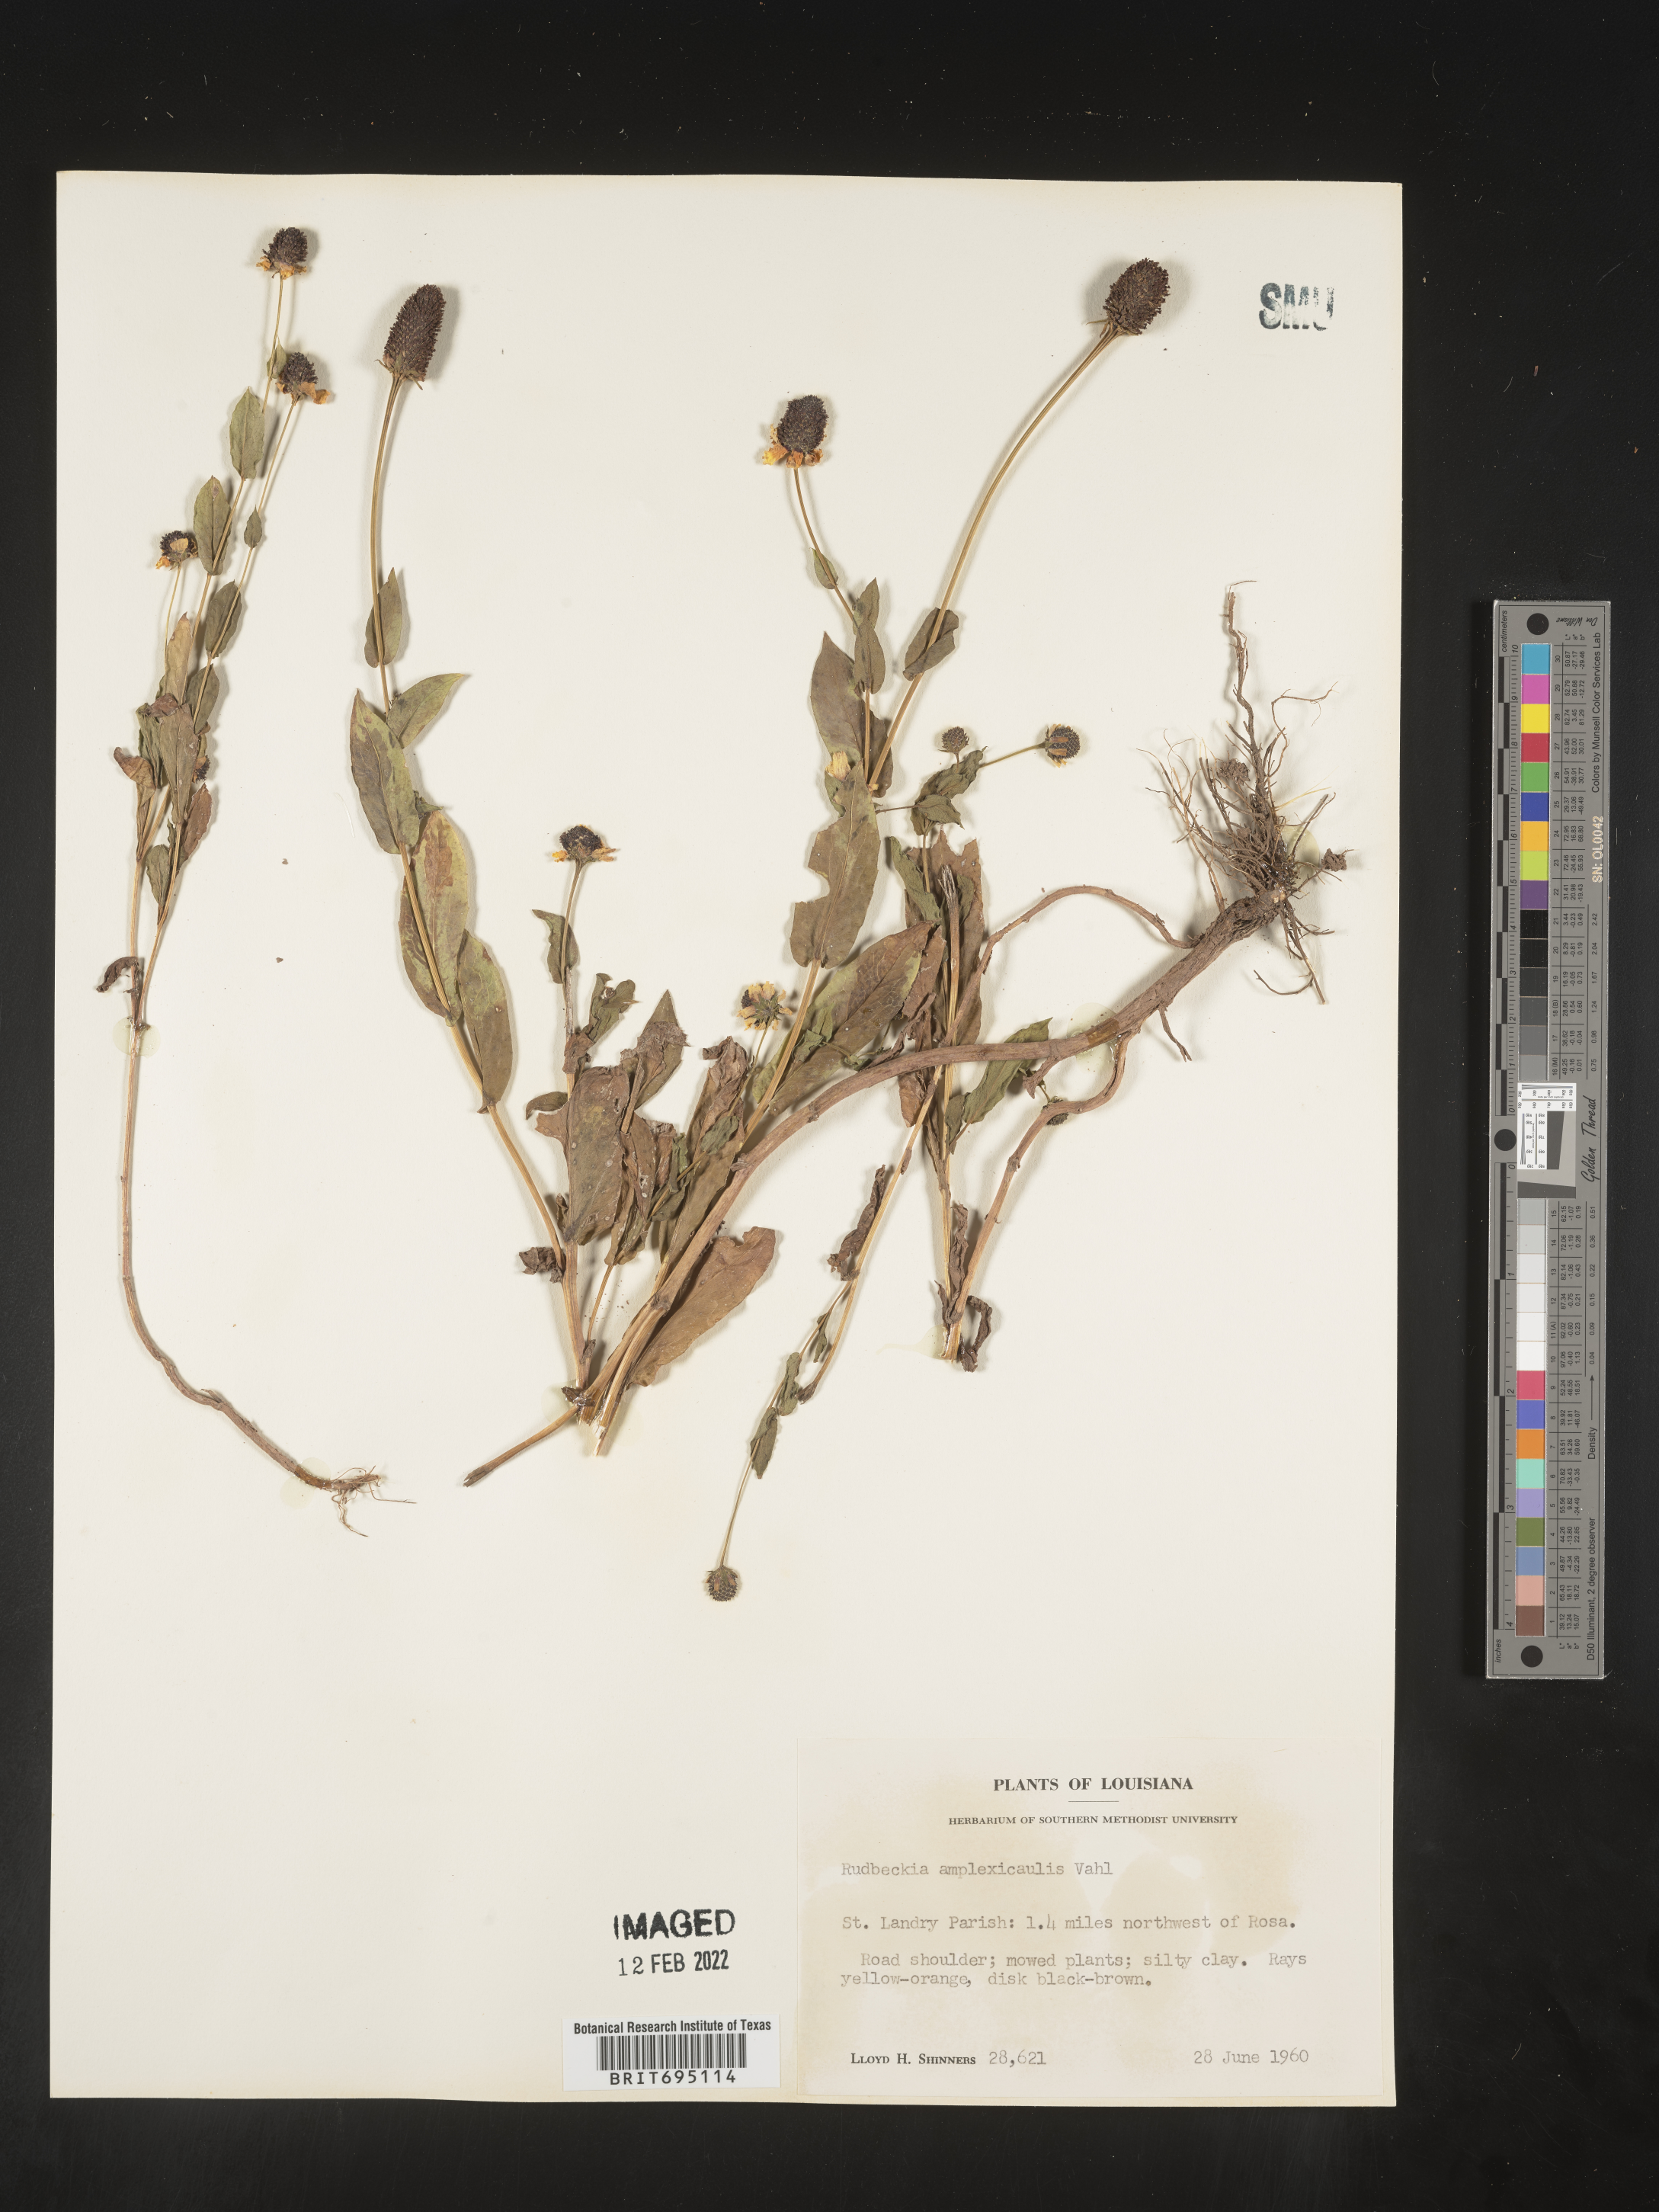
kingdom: Plantae
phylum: Tracheophyta
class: Magnoliopsida
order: Asterales
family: Asteraceae
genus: Rudbeckia
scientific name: Rudbeckia amplexicaulis
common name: Clasping-leaf coneflower
